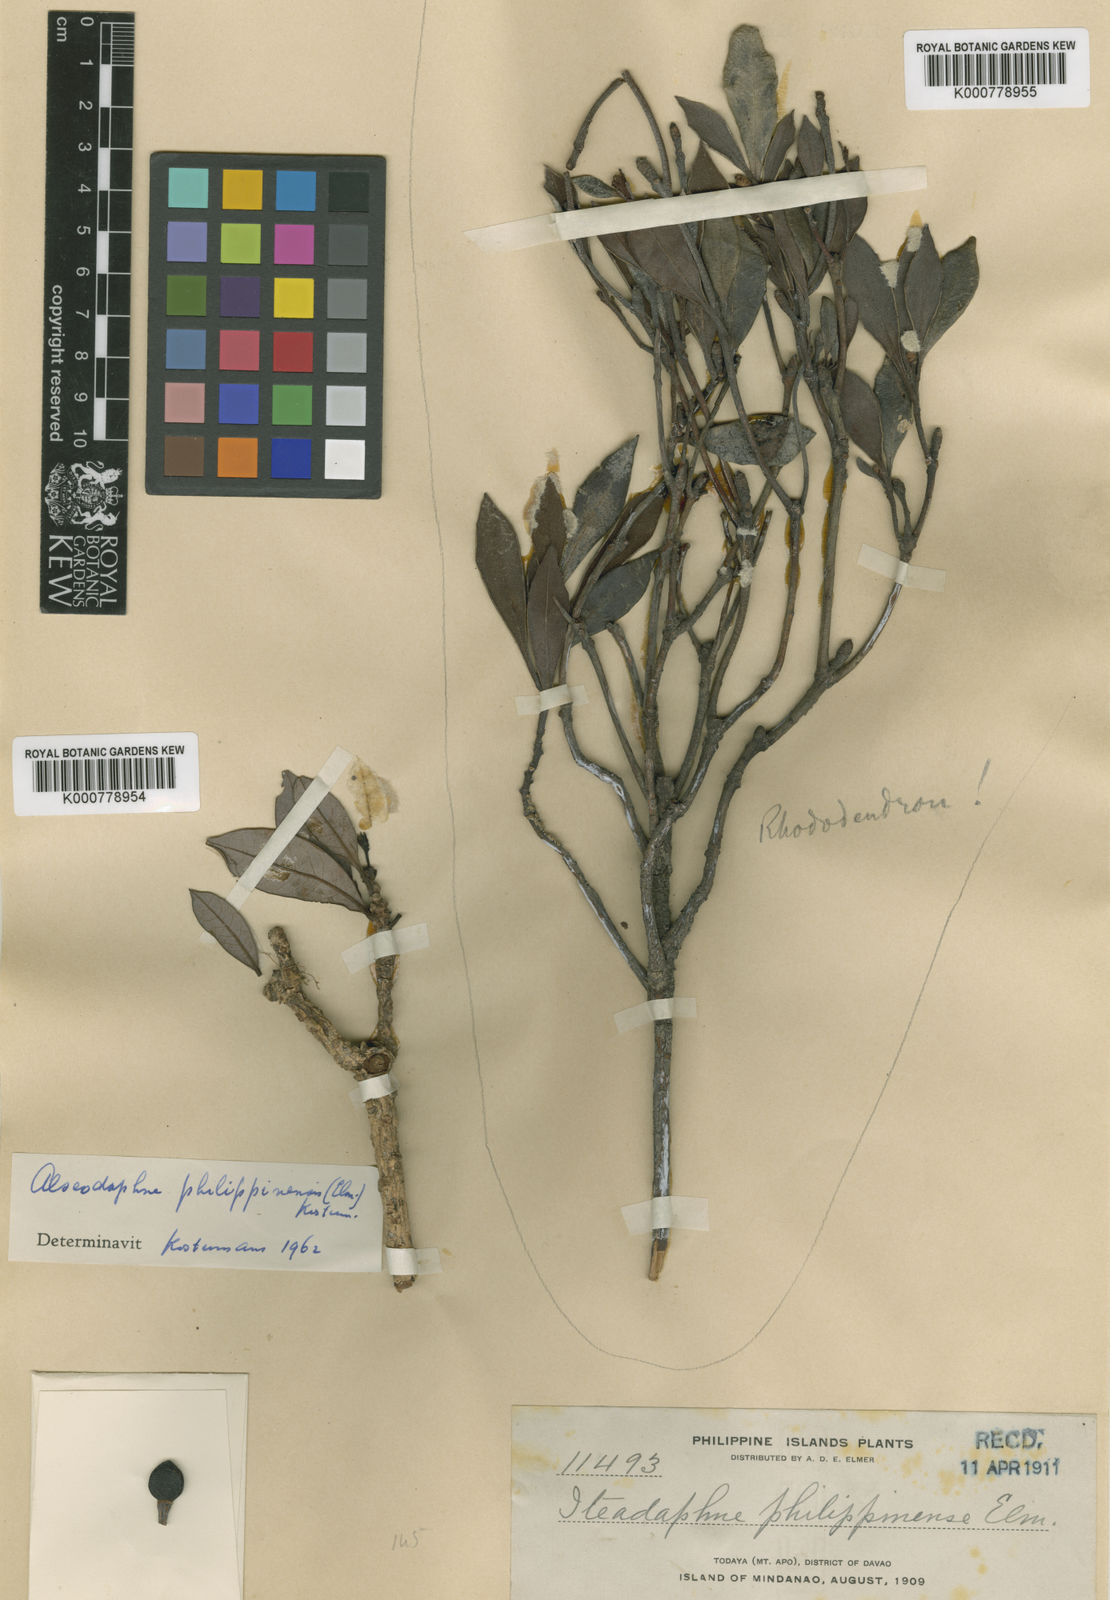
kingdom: Plantae
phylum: Tracheophyta
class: Magnoliopsida
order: Laurales
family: Lauraceae
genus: Alseodaphne
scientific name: Alseodaphne philippinensis
